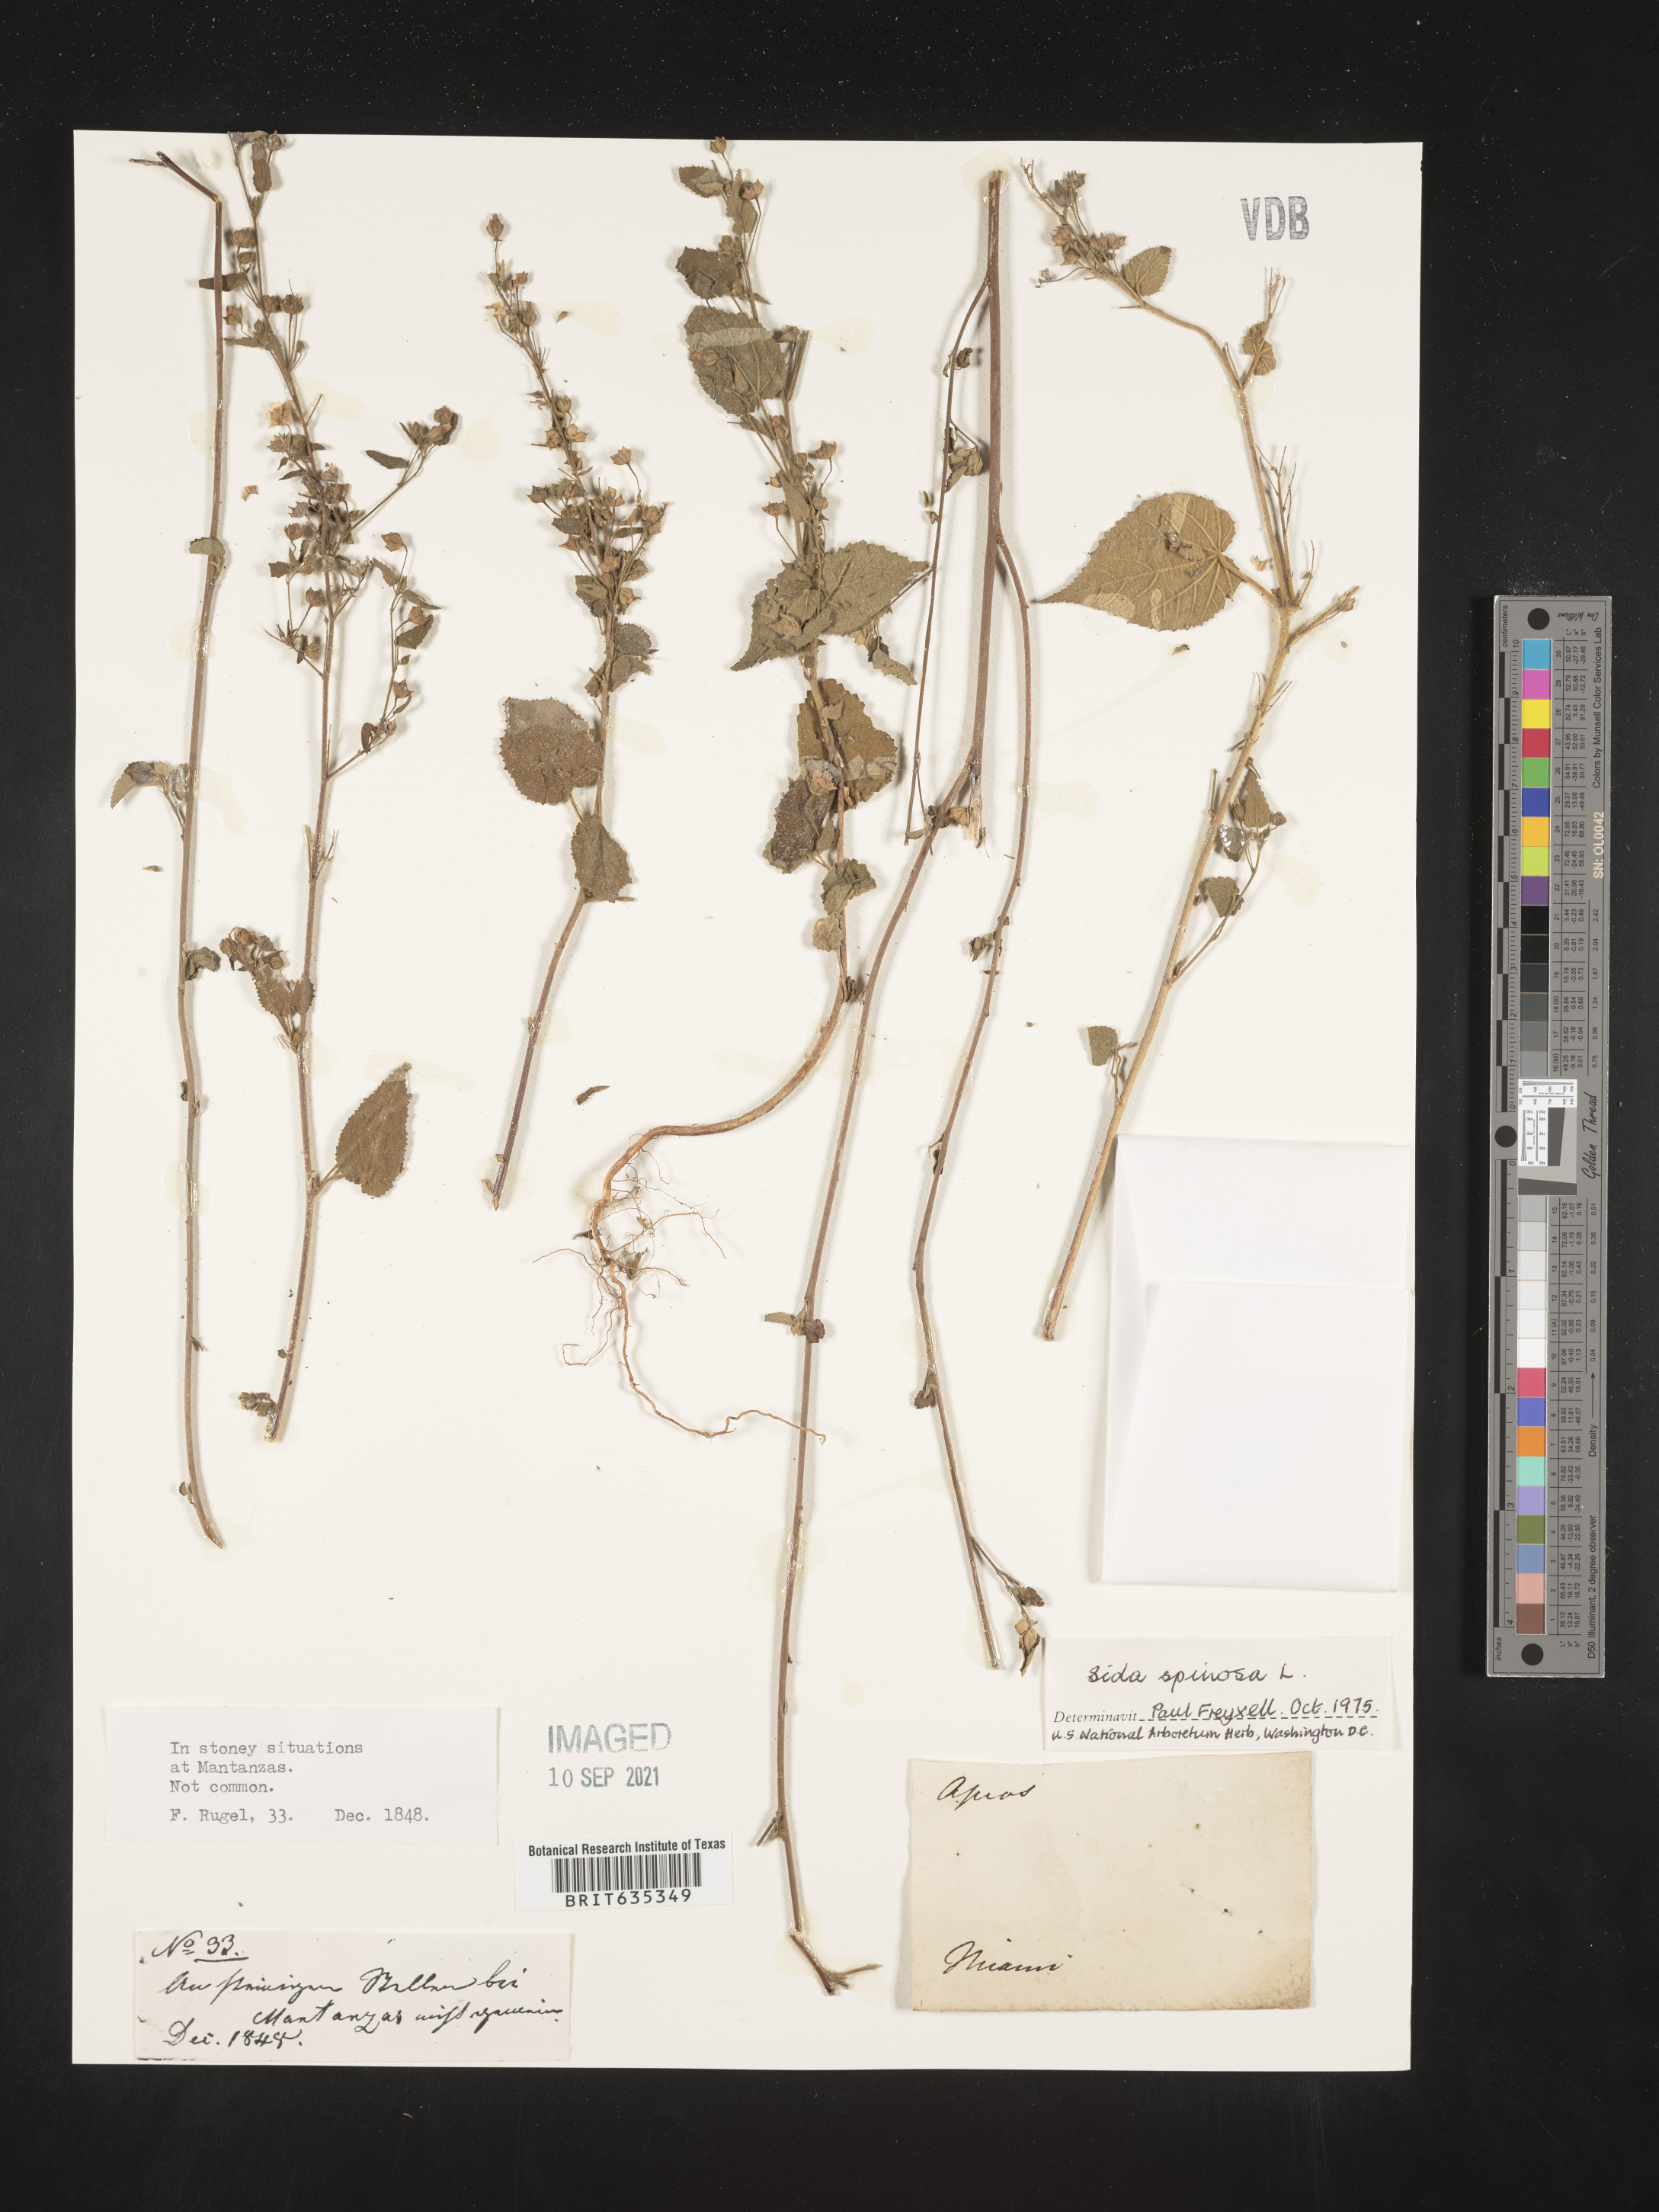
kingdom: Plantae
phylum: Tracheophyta
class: Magnoliopsida
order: Malvales
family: Malvaceae
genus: Sida
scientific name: Sida
